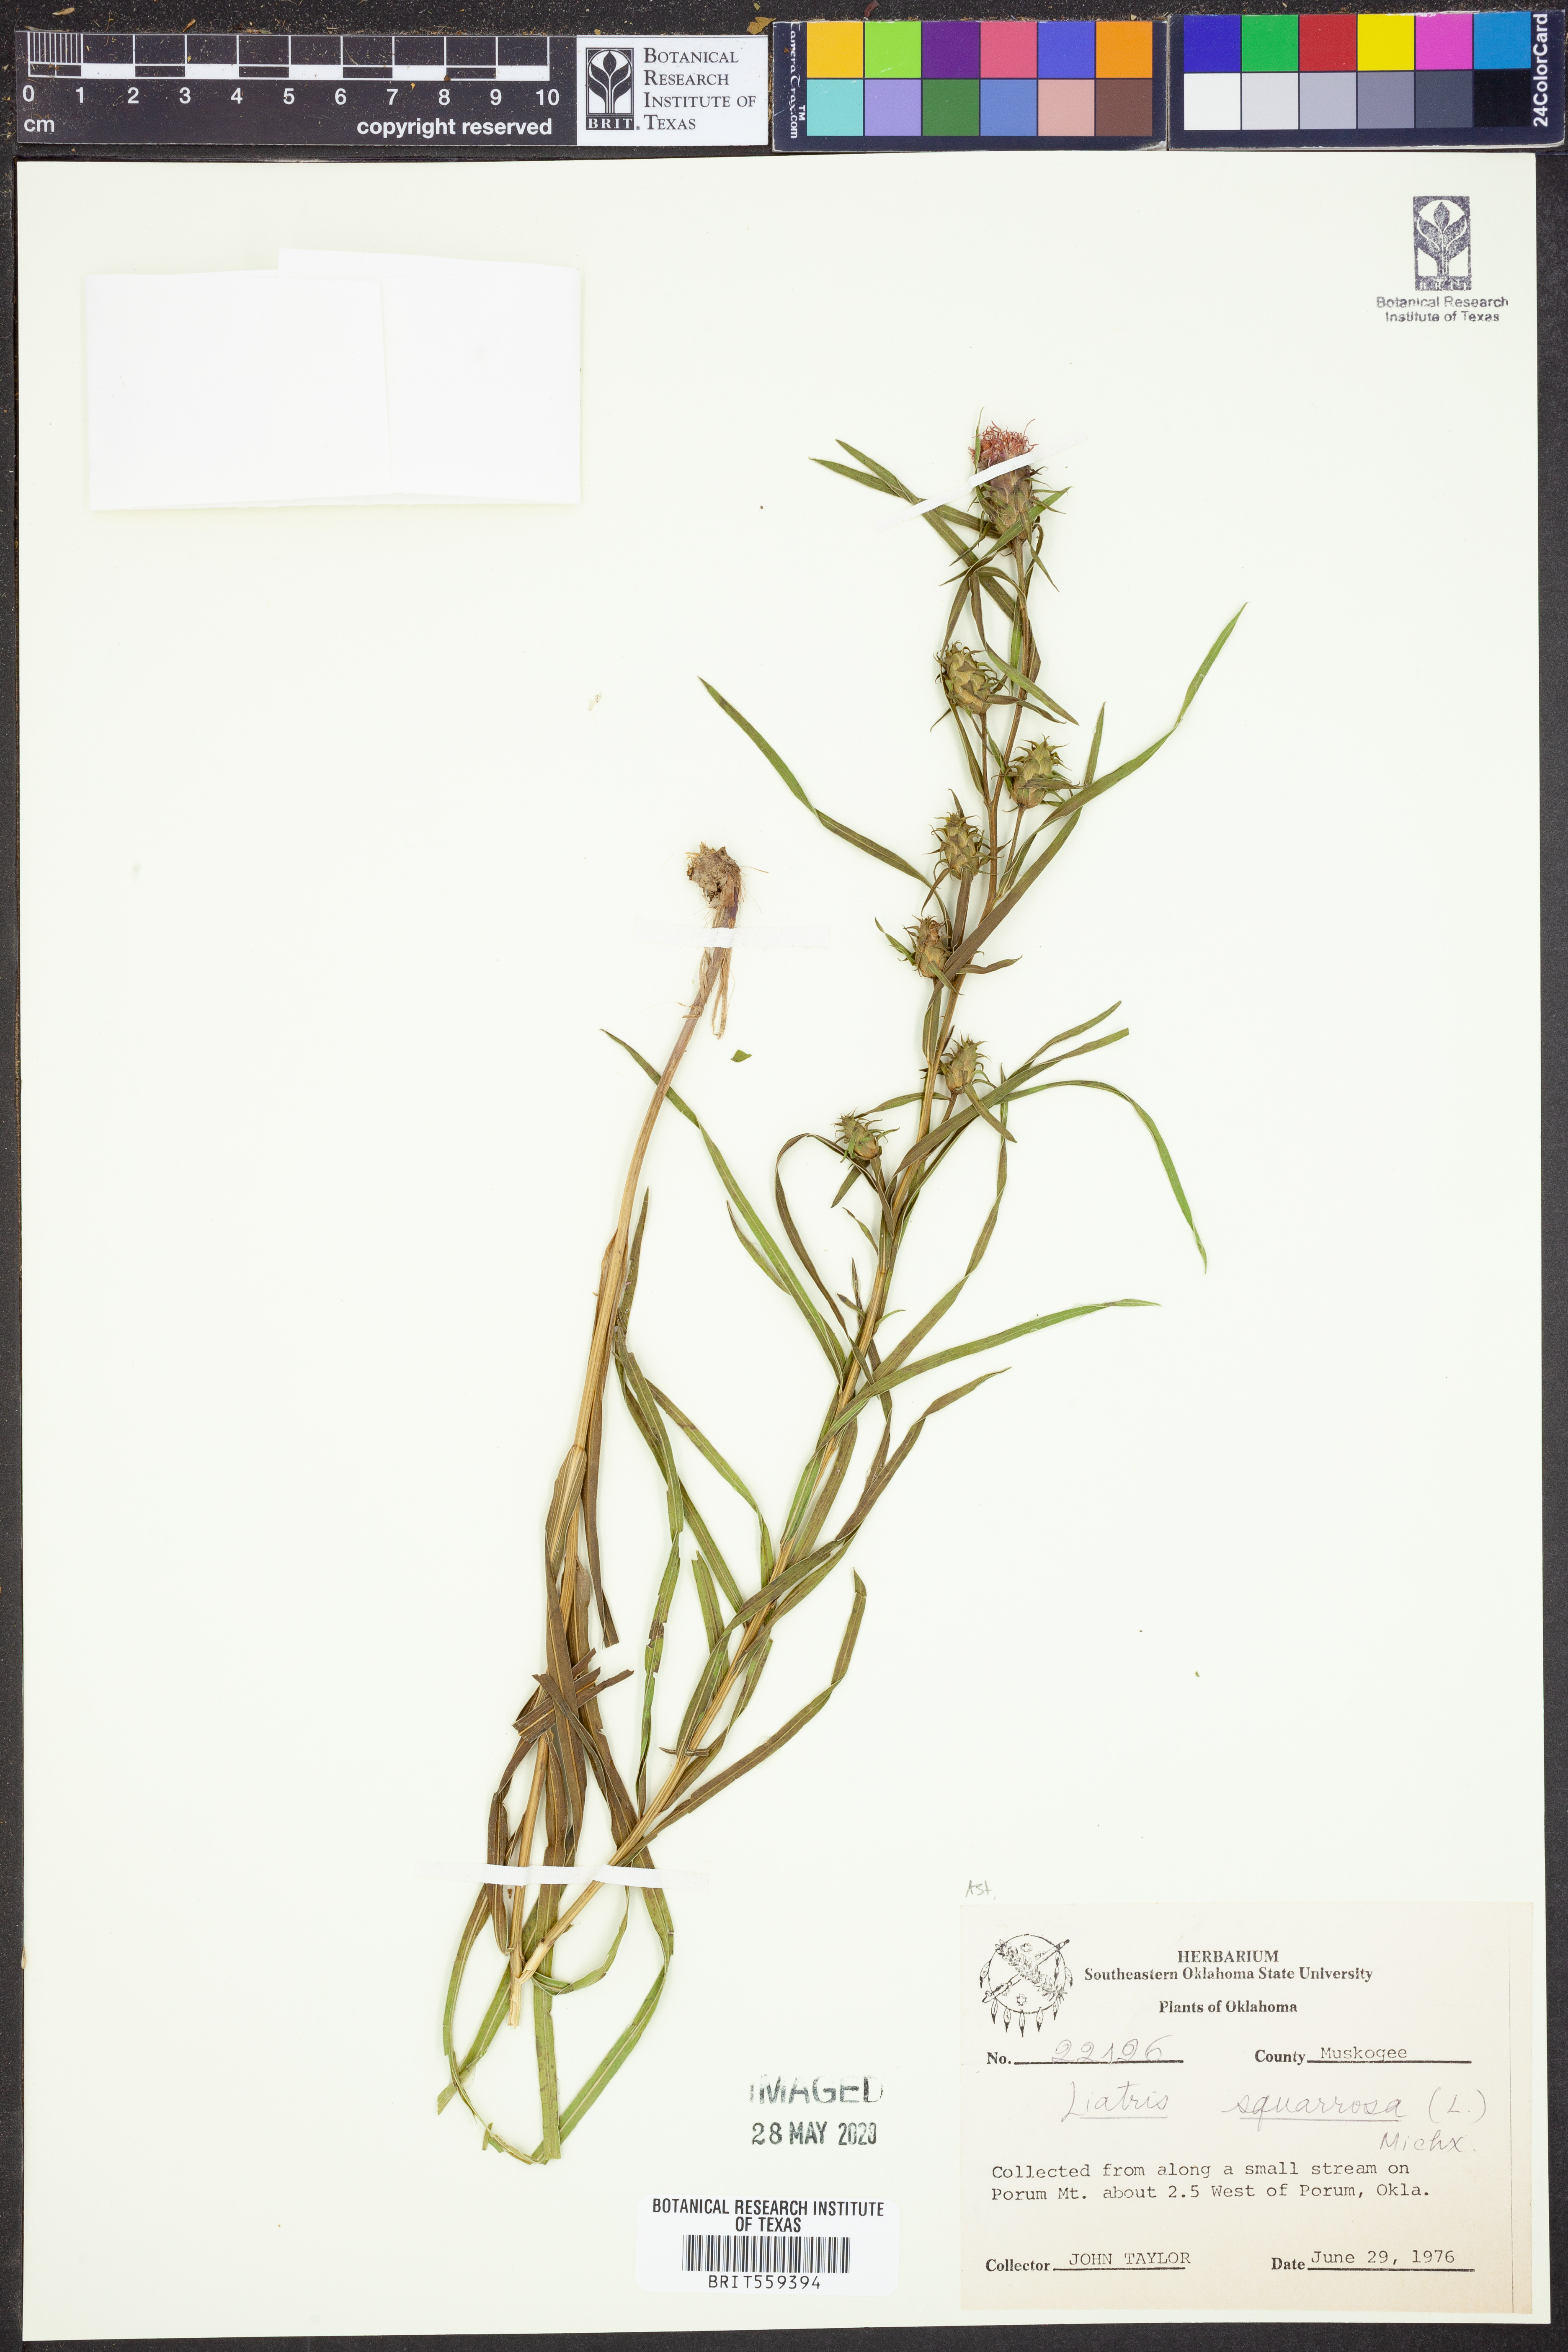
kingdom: Plantae
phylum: Tracheophyta
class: Magnoliopsida
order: Asterales
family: Asteraceae
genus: Liatris
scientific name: Liatris squarrosa
